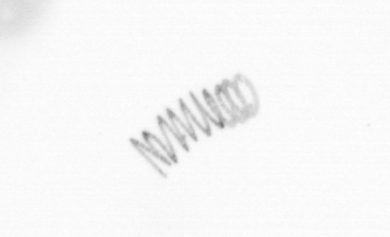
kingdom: Chromista
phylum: Ochrophyta
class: Bacillariophyceae
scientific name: Bacillariophyceae
